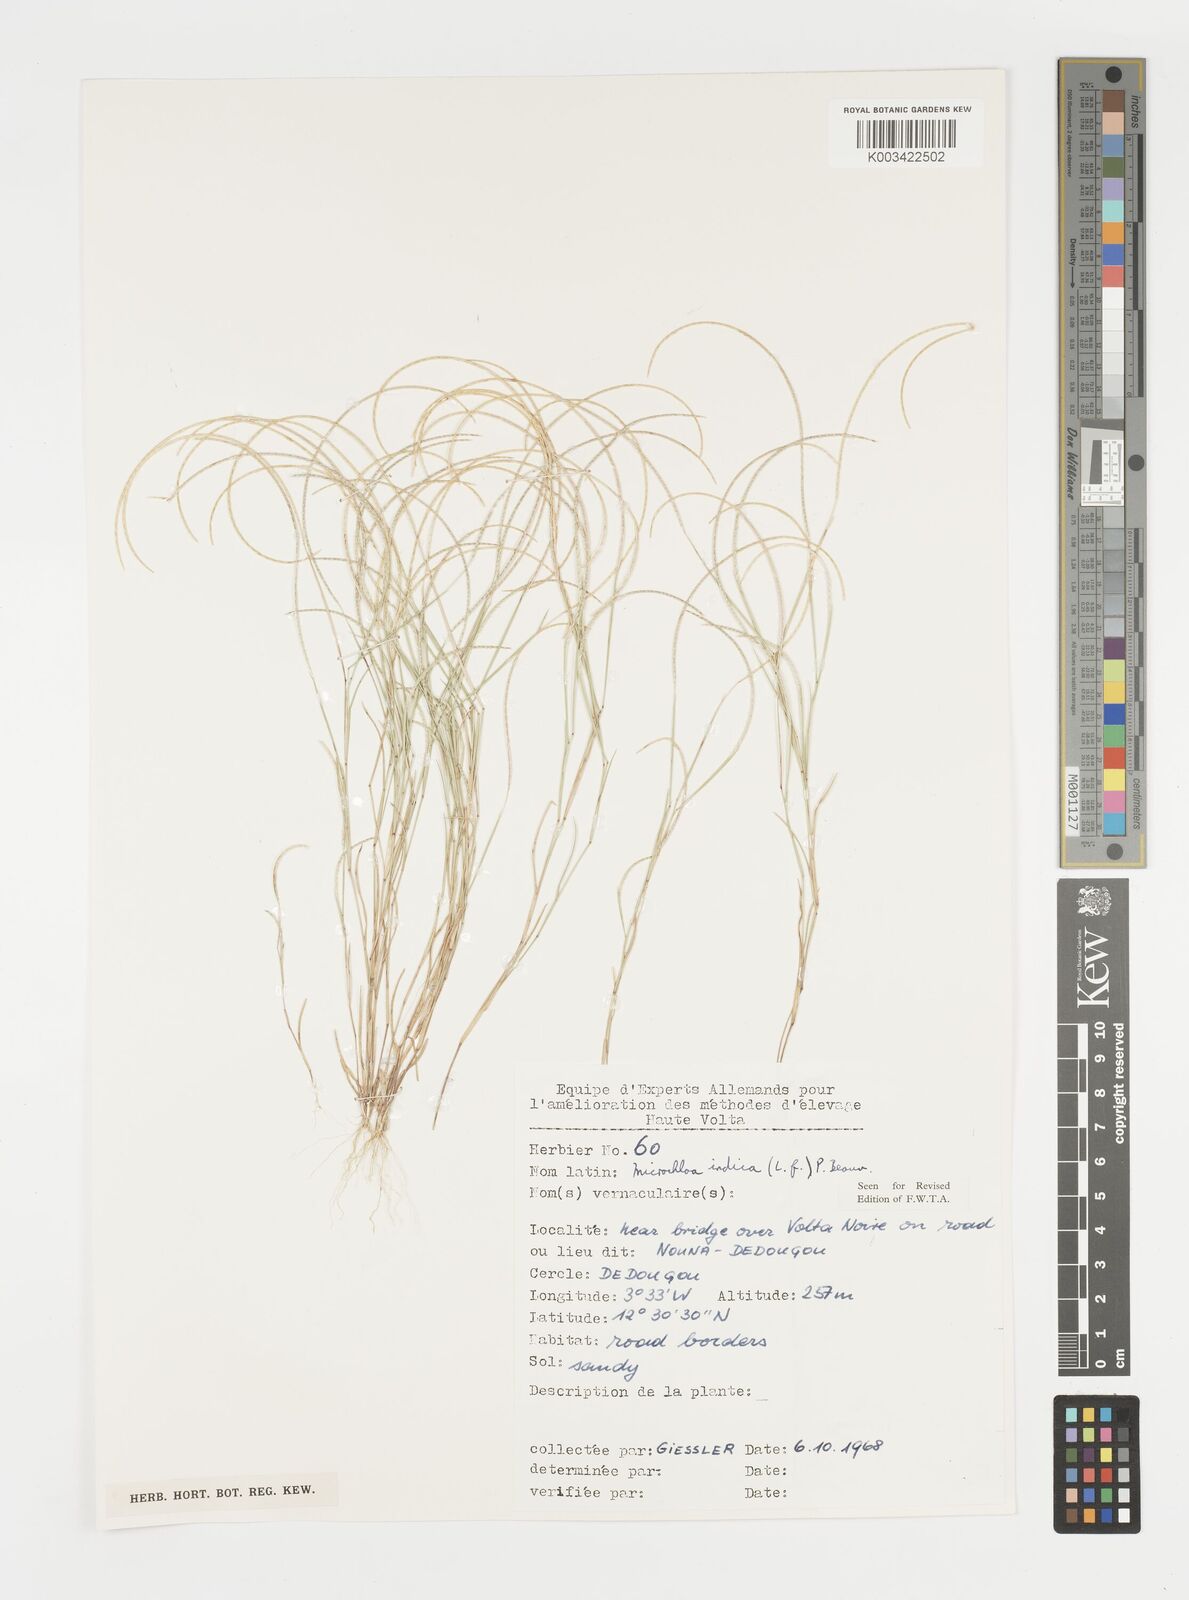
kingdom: Plantae
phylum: Tracheophyta
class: Liliopsida
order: Poales
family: Poaceae
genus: Microchloa
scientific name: Microchloa indica
